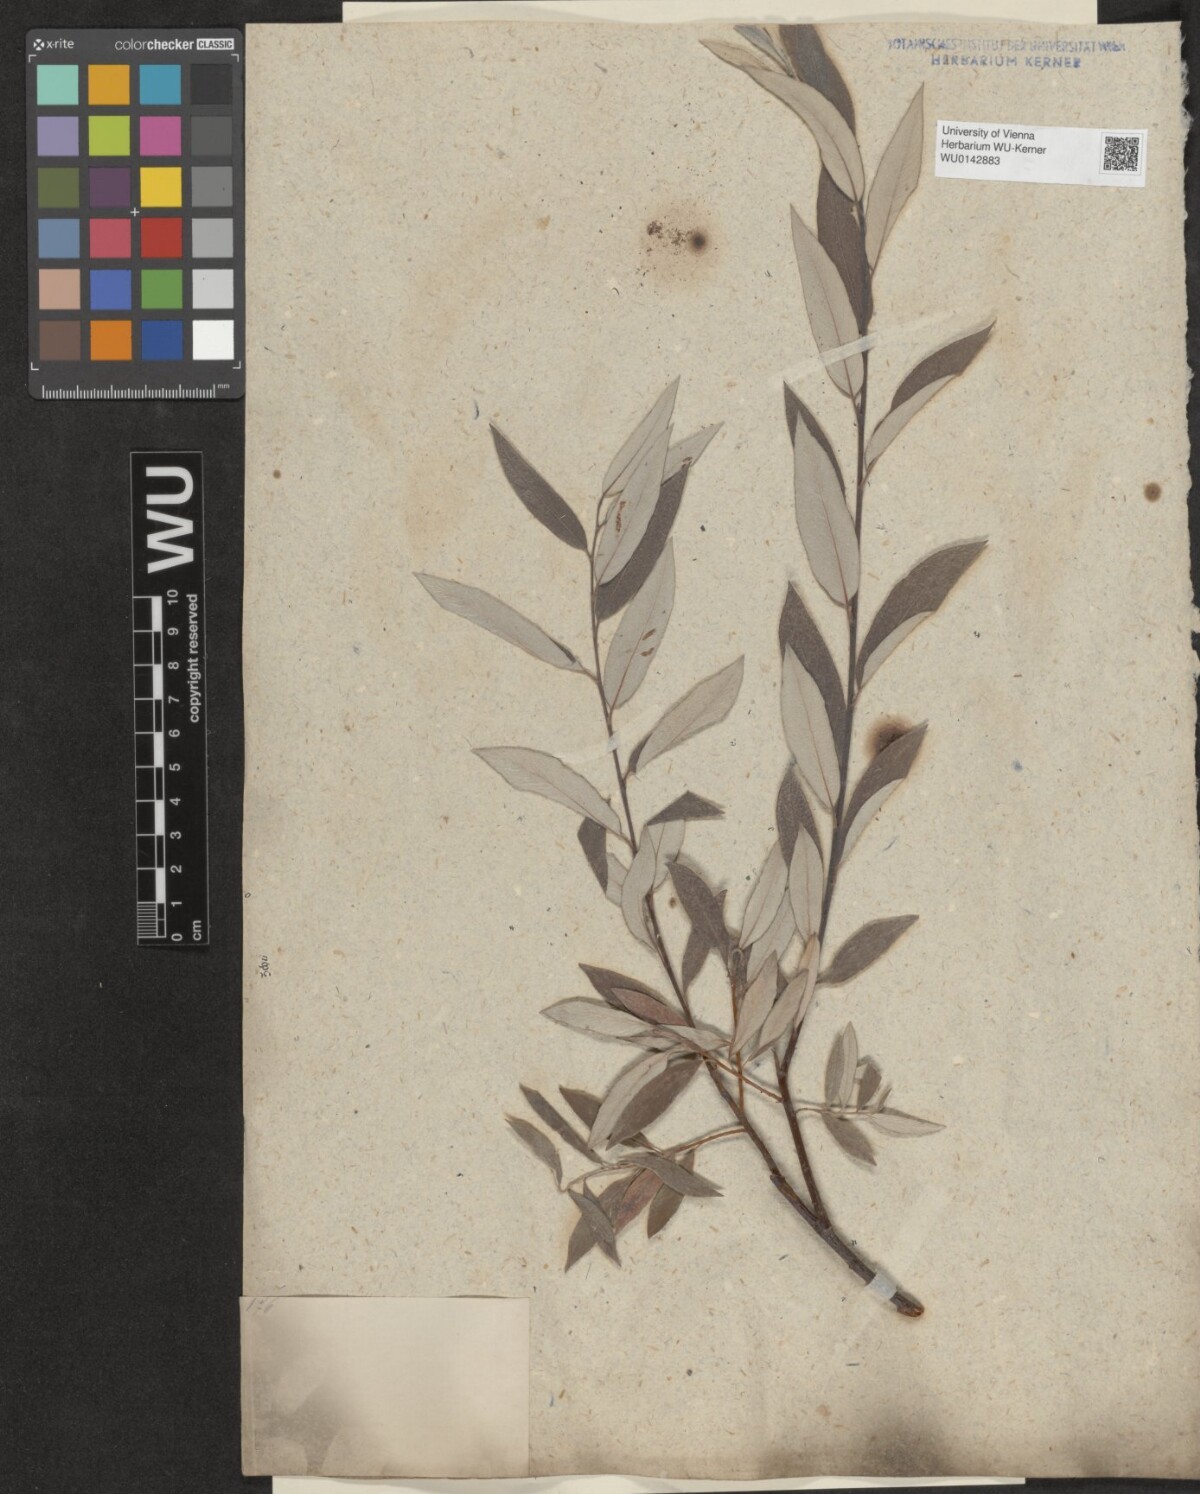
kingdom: Plantae
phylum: Tracheophyta
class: Magnoliopsida
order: Malpighiales
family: Salicaceae
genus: Salix
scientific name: Salix lapponum
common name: Downy willow
